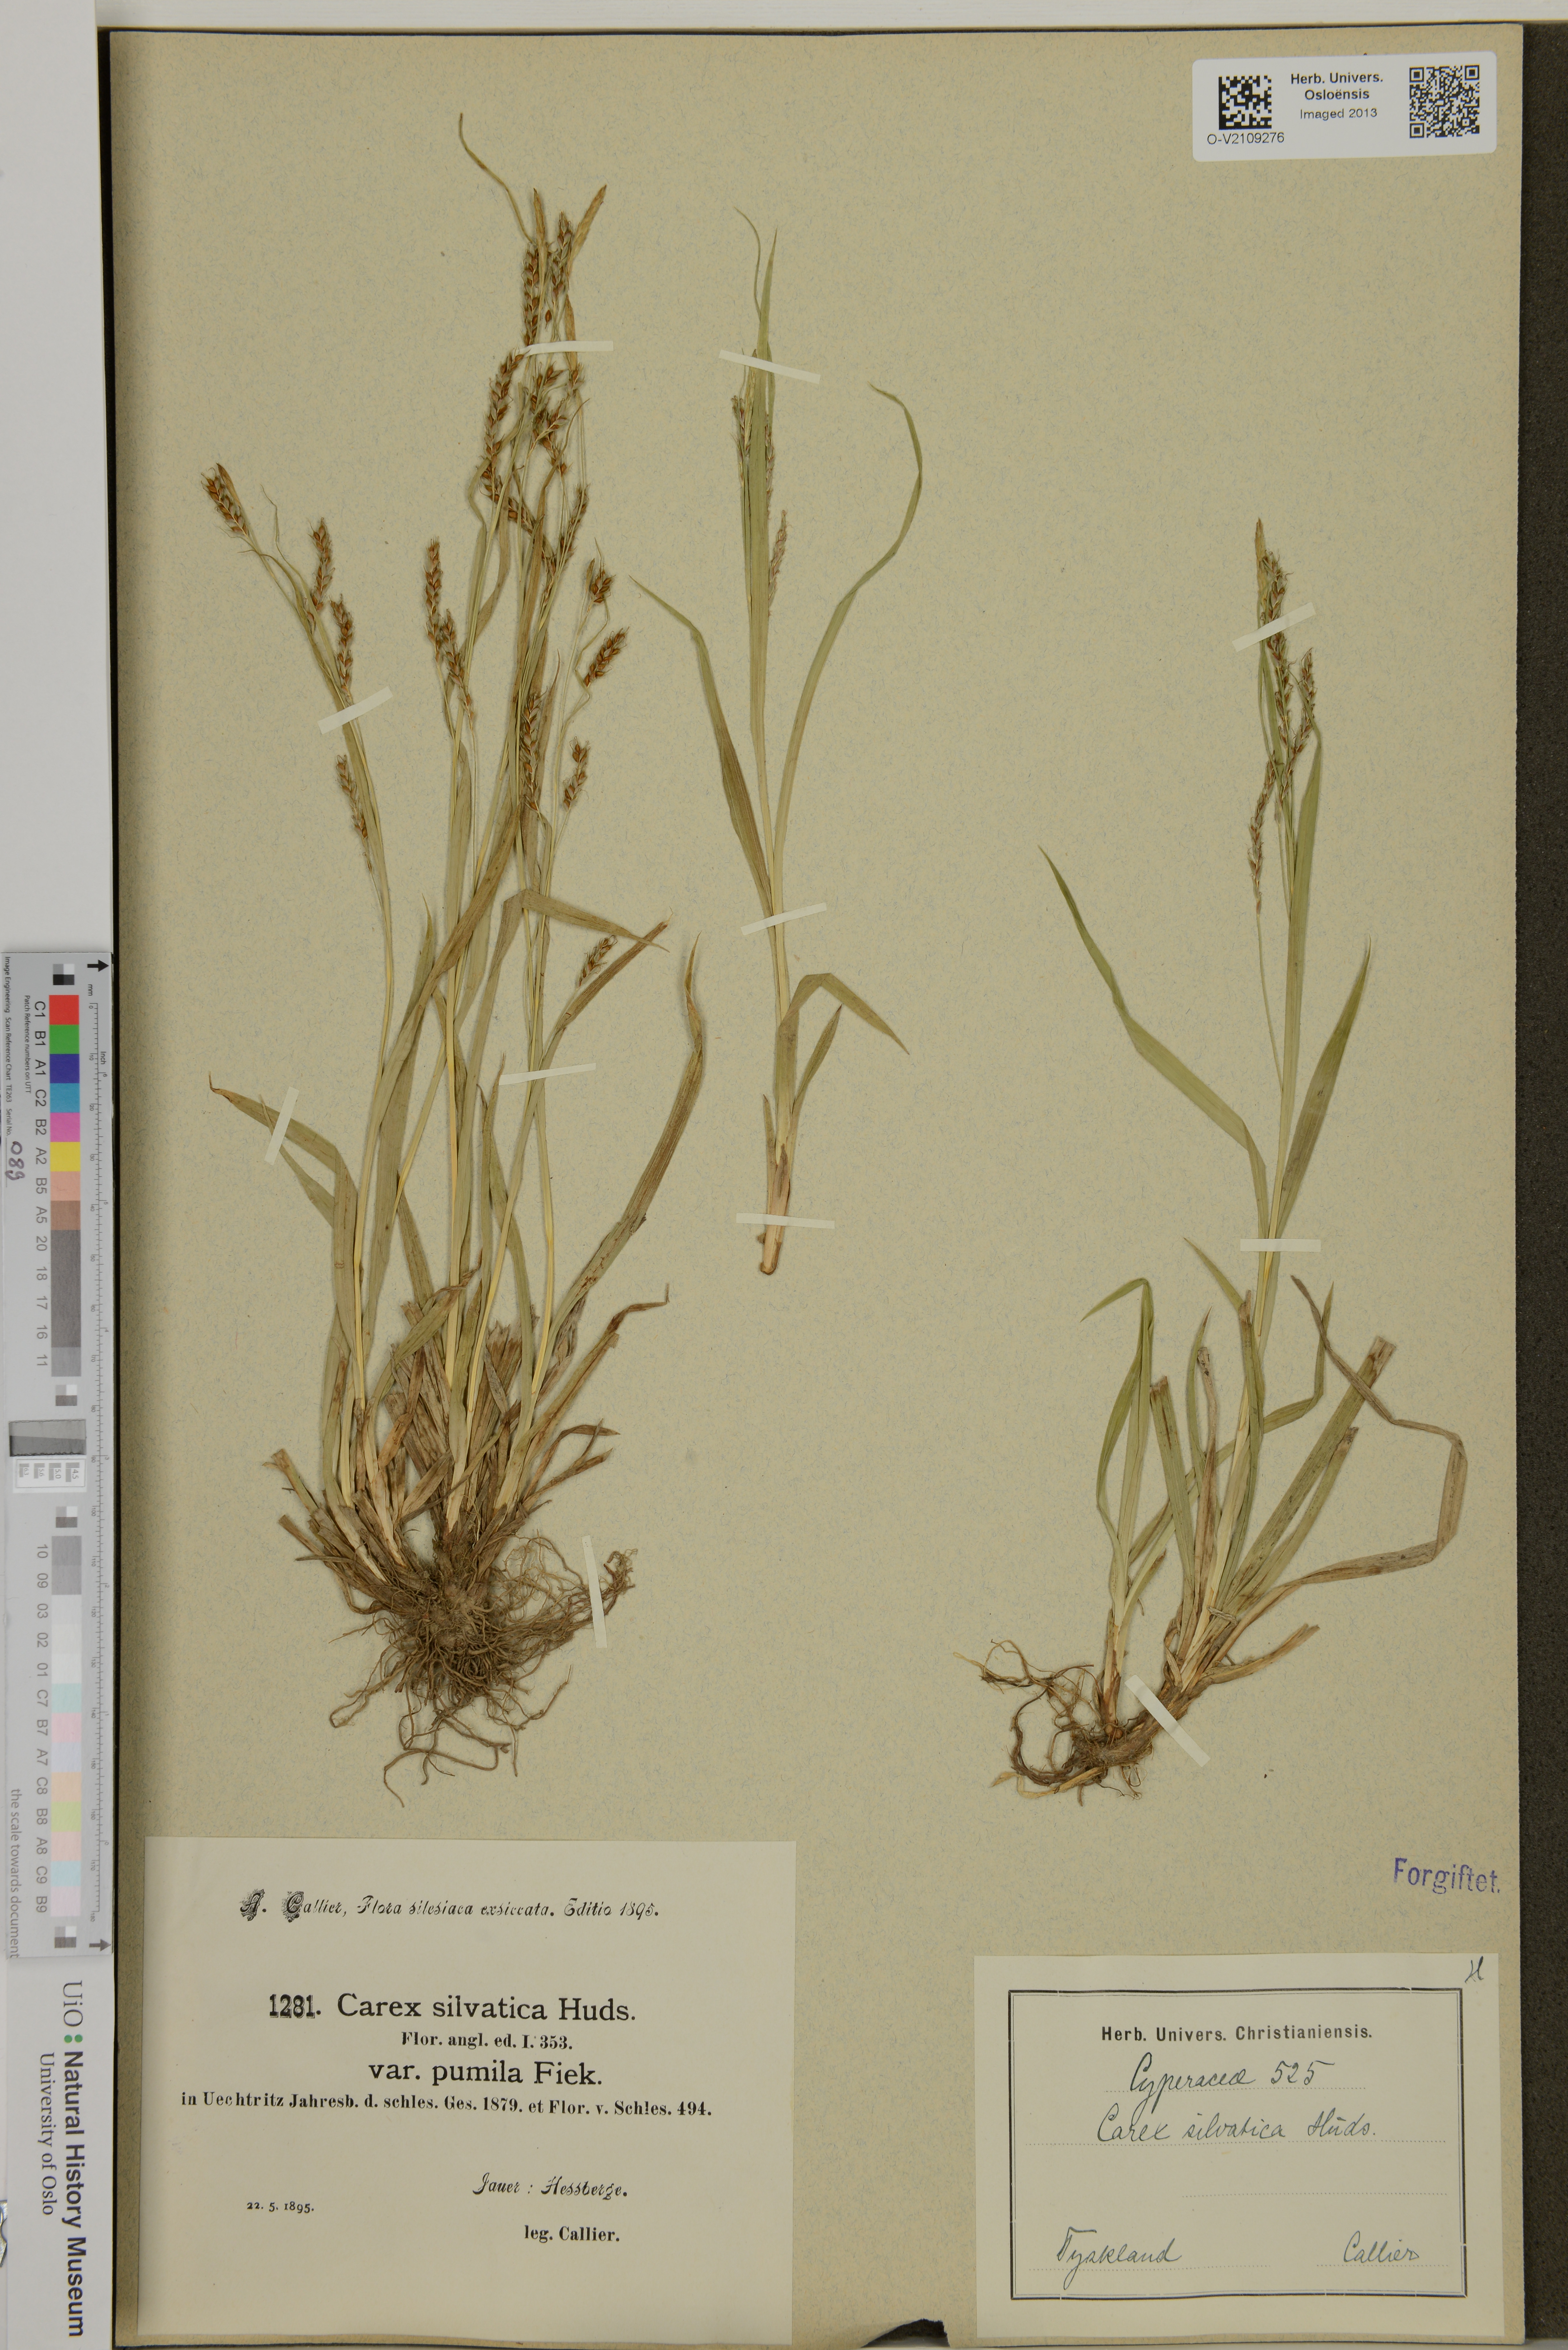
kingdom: Plantae
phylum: Tracheophyta
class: Liliopsida
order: Poales
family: Cyperaceae
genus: Carex
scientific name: Carex sylvatica
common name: Wood-sedge
